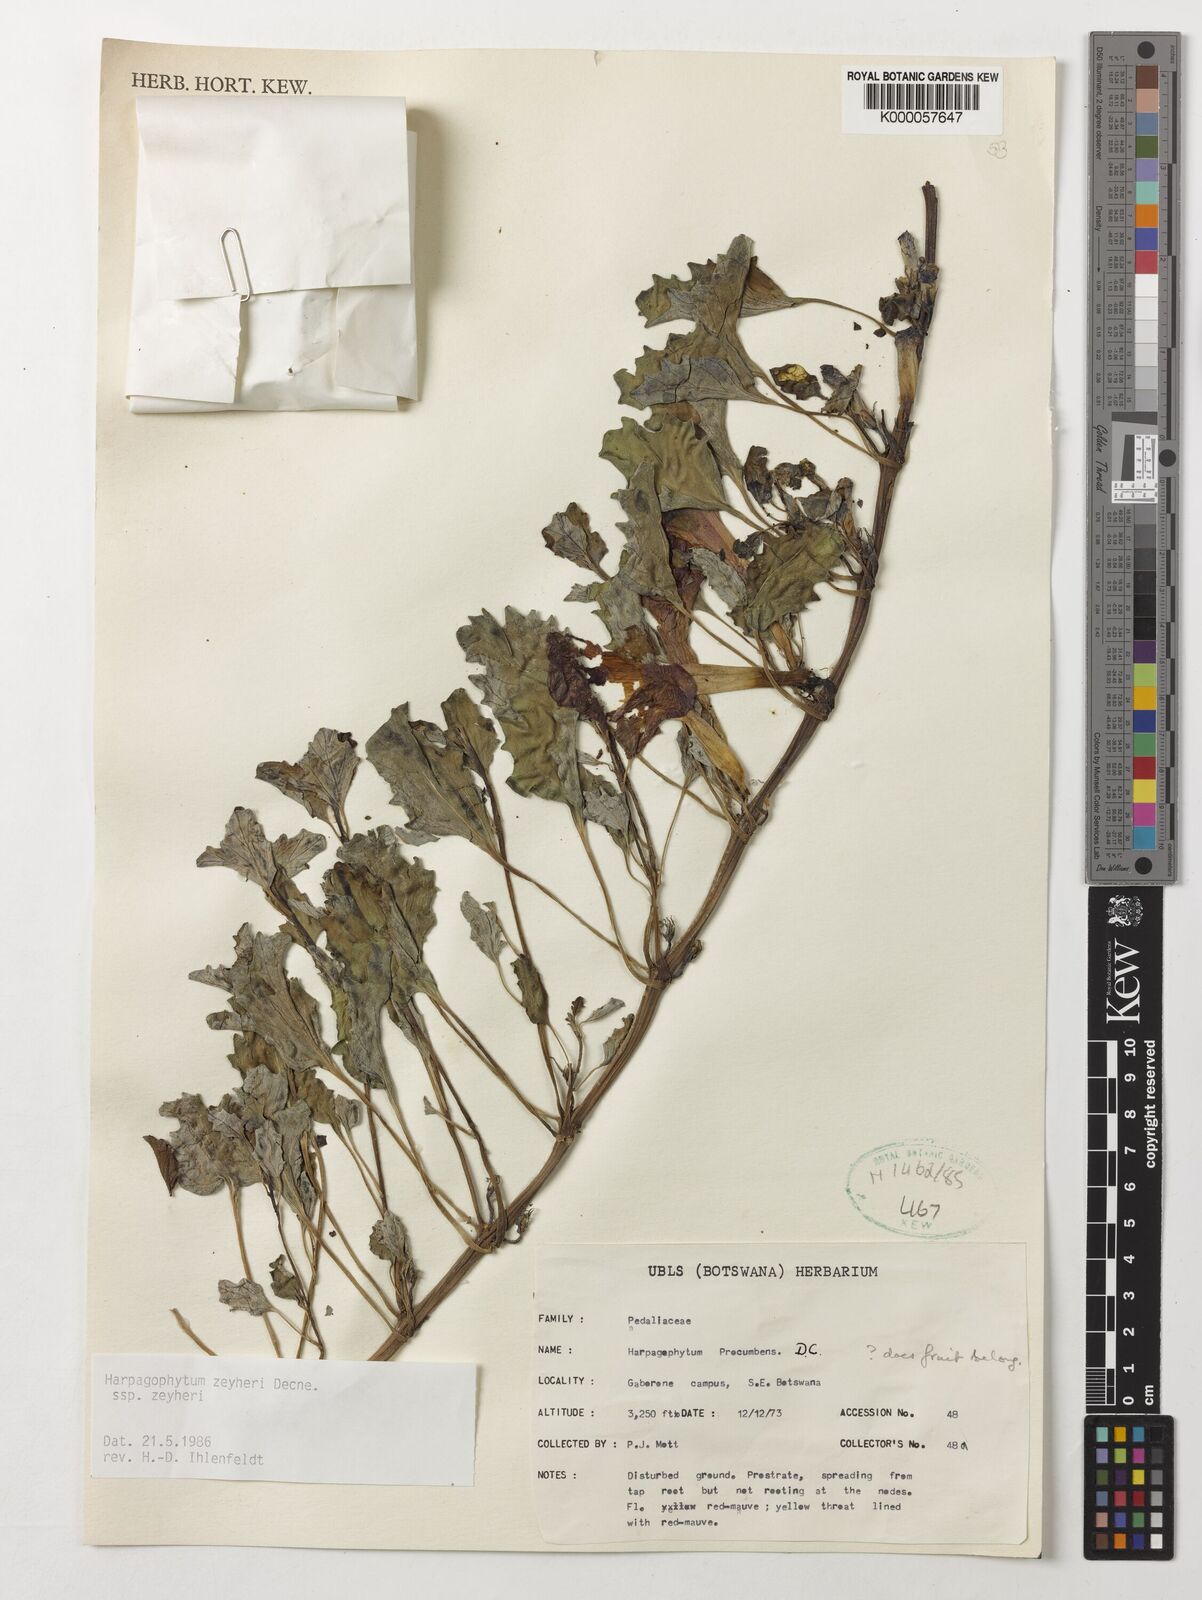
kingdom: Plantae
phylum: Tracheophyta
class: Magnoliopsida
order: Lamiales
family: Pedaliaceae
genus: Harpagophytum
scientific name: Harpagophytum zeyheri
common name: Grappleplant
